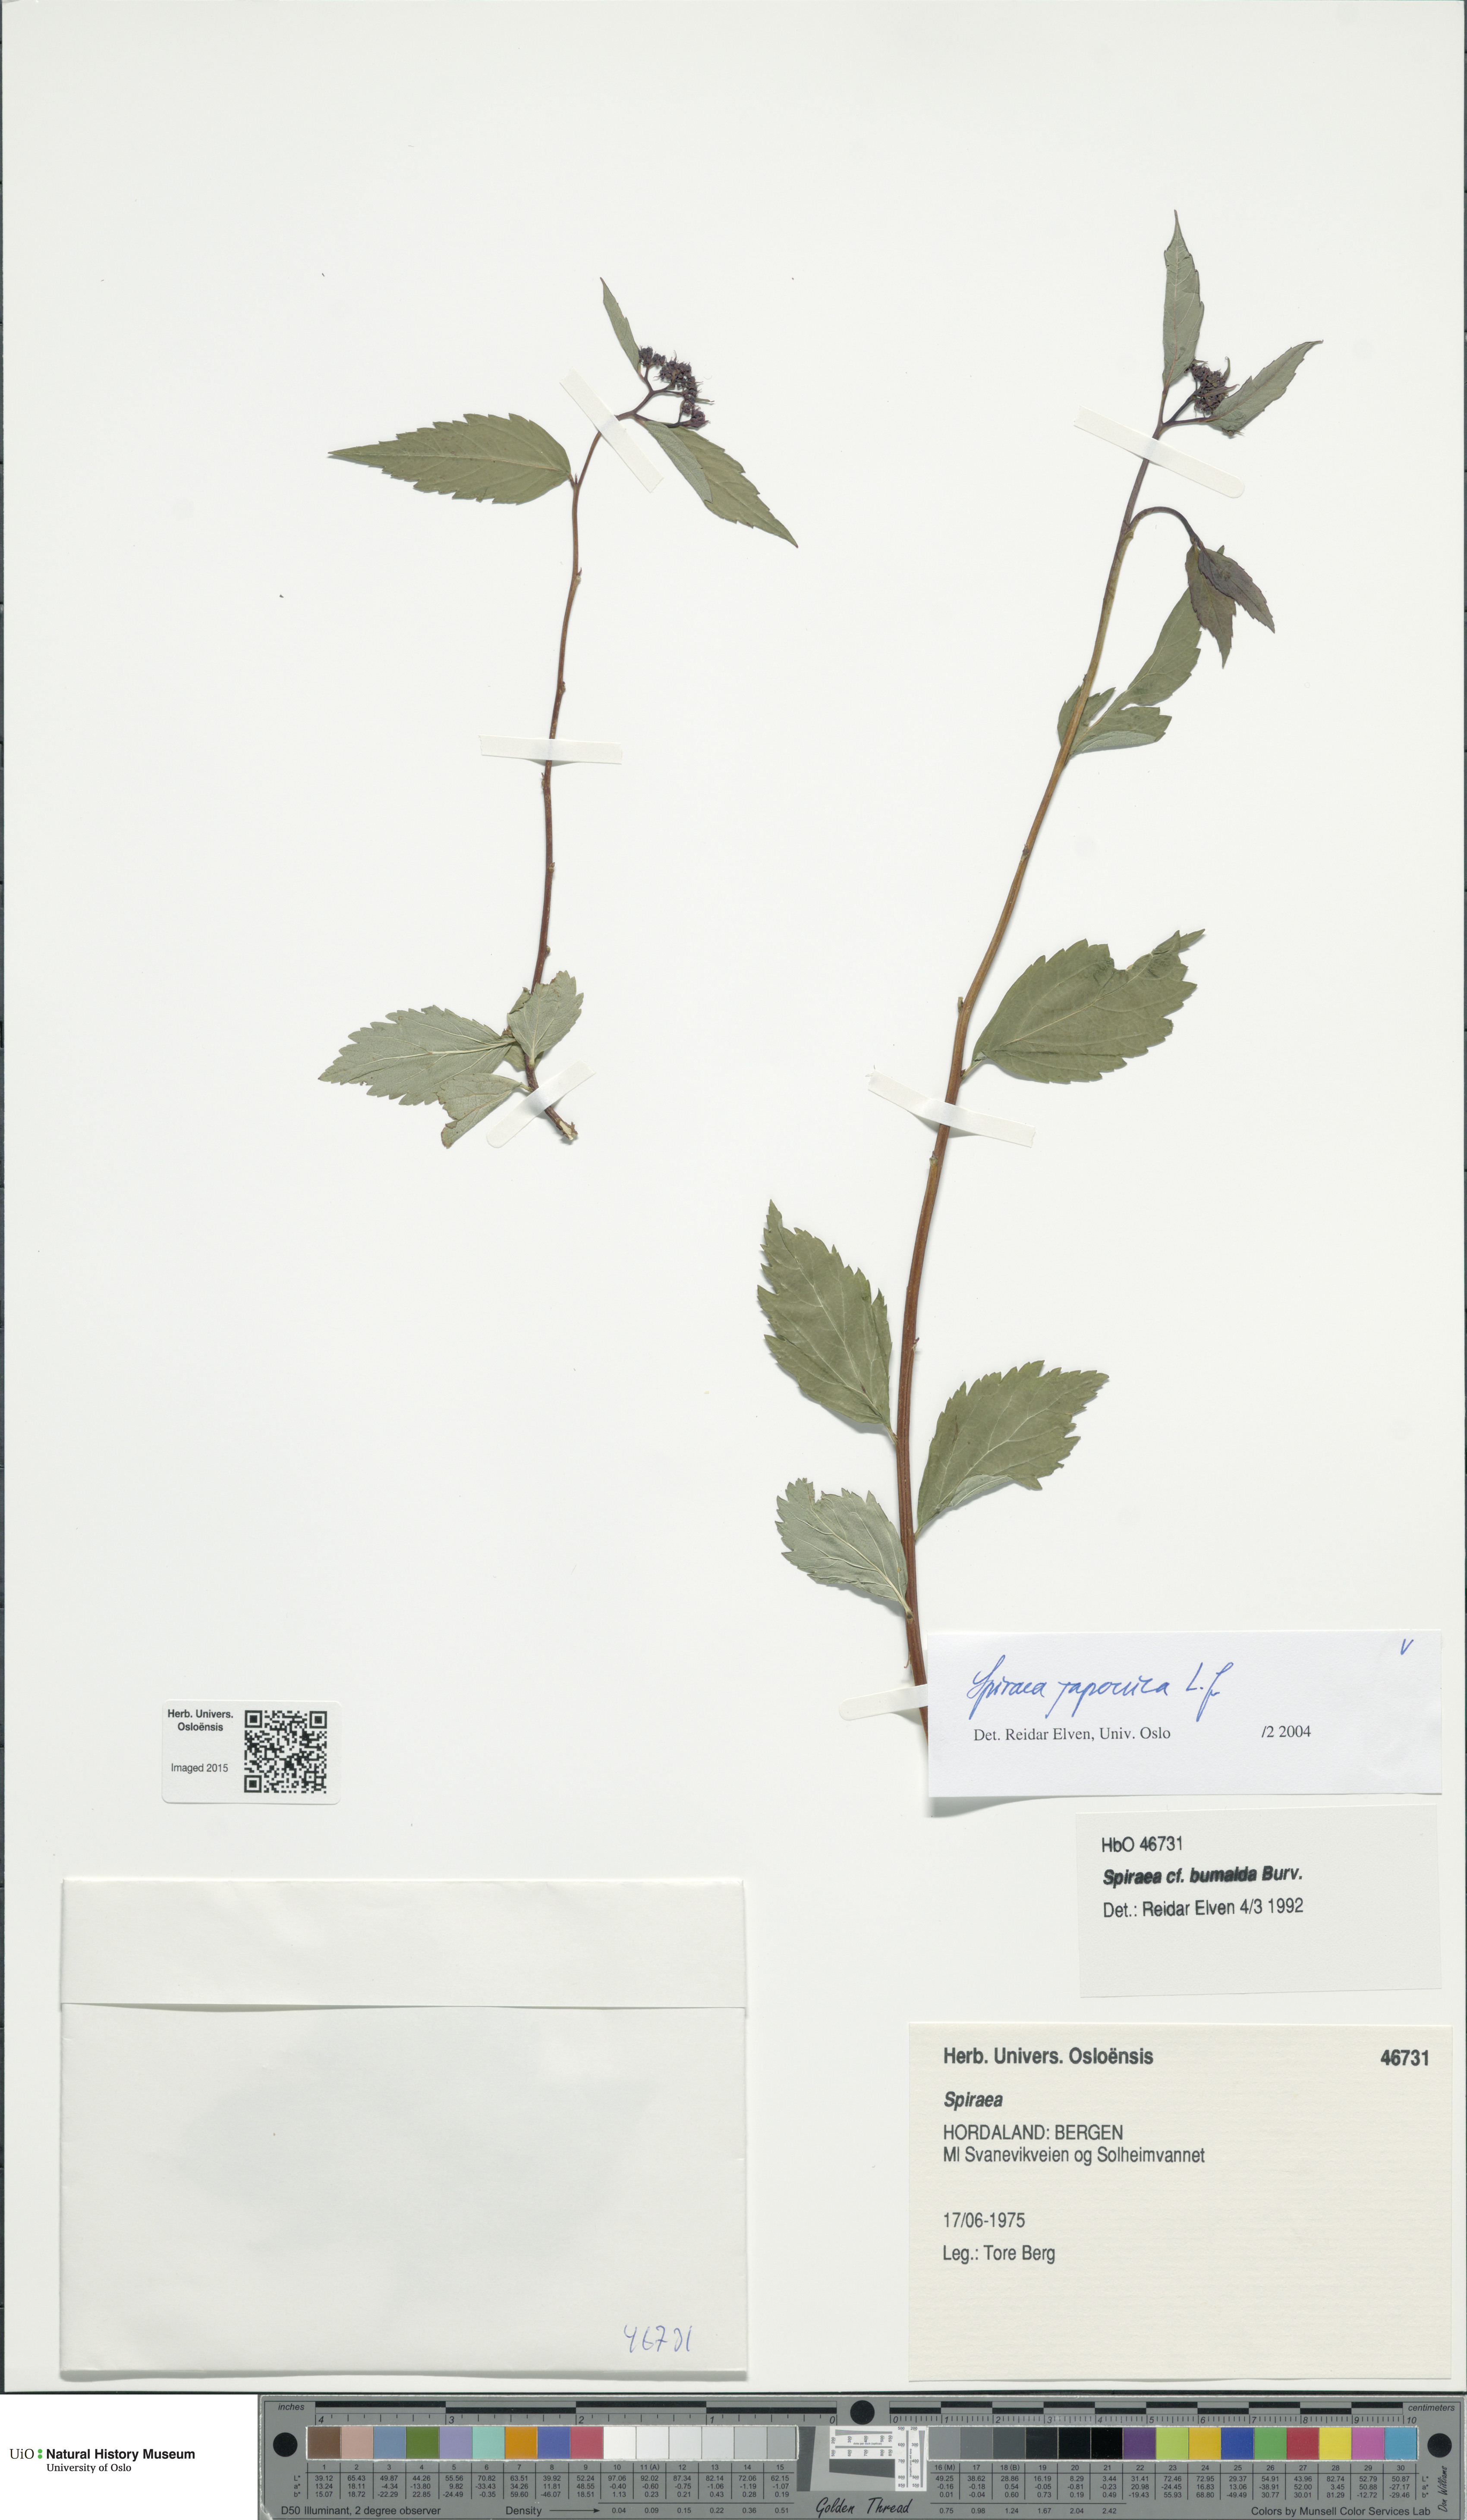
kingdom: Plantae
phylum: Tracheophyta
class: Magnoliopsida
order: Rosales
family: Rosaceae
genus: Spiraea
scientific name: Spiraea japonica
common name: Japanese spiraea
